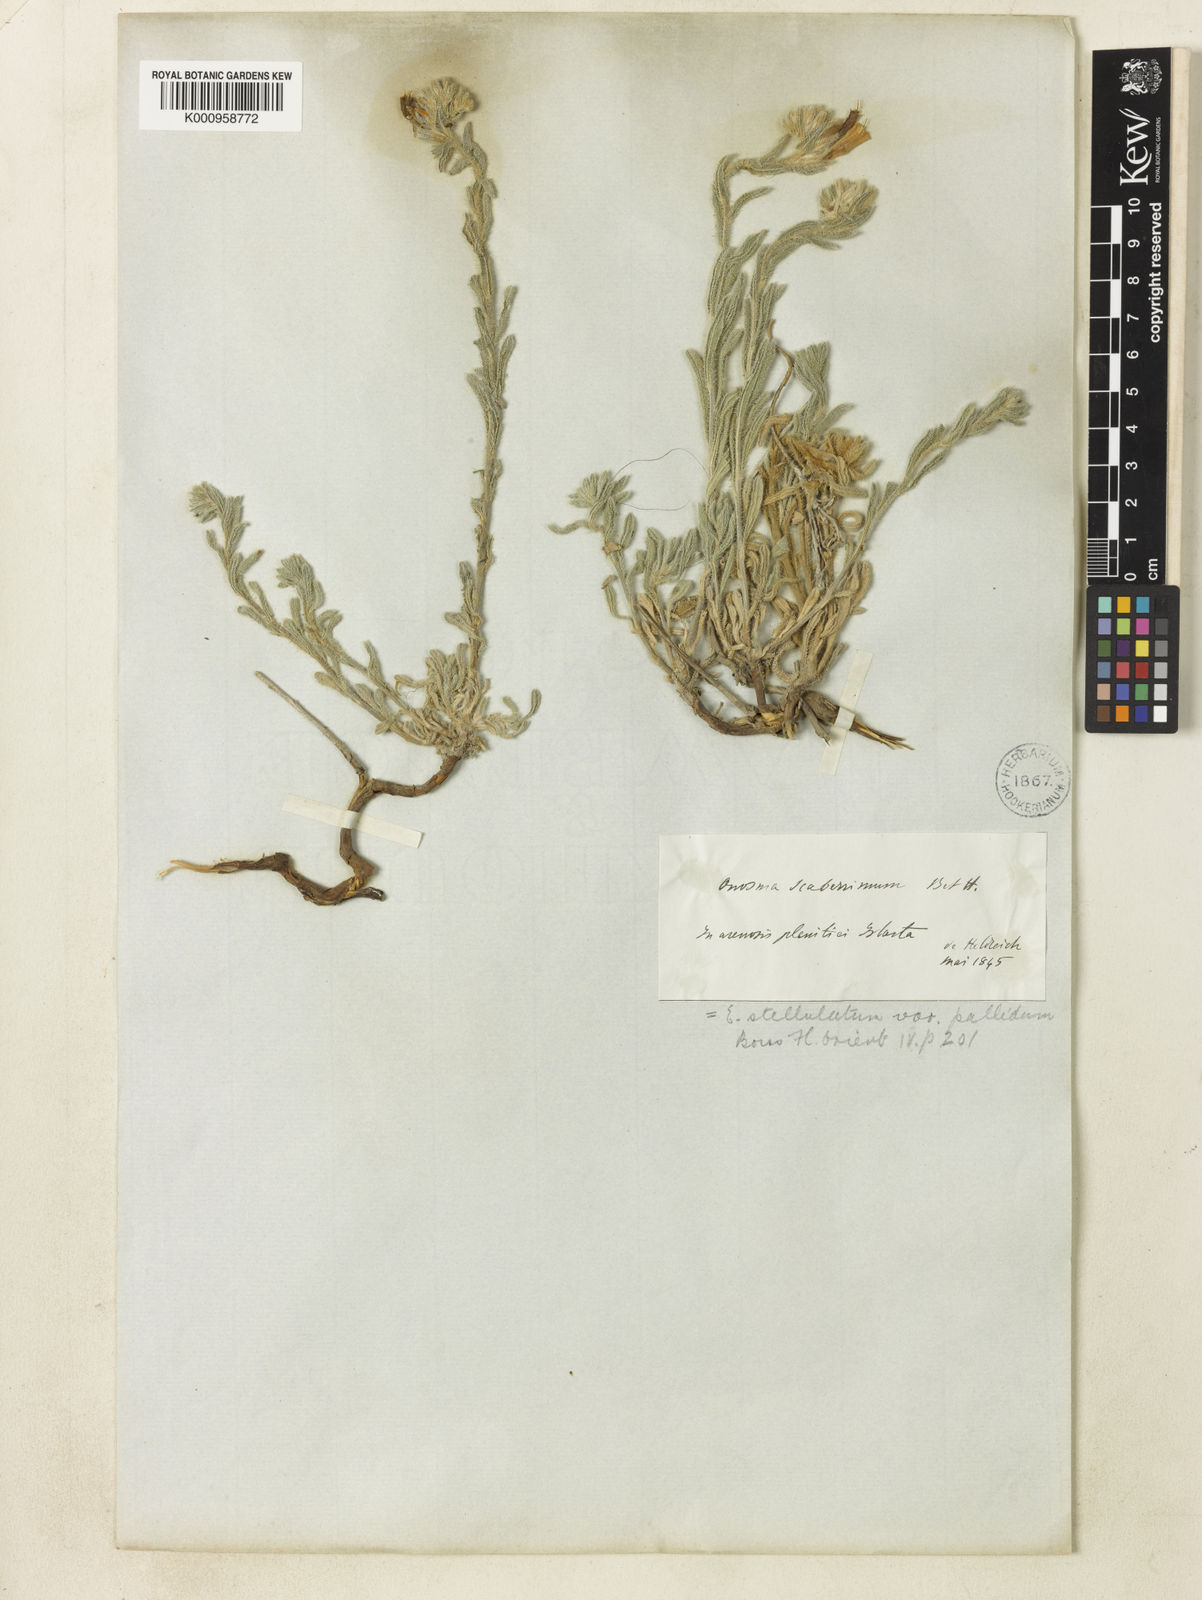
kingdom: Plantae
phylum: Tracheophyta
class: Magnoliopsida
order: Boraginales
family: Boraginaceae
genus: Onosma
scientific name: Onosma aucheriana
